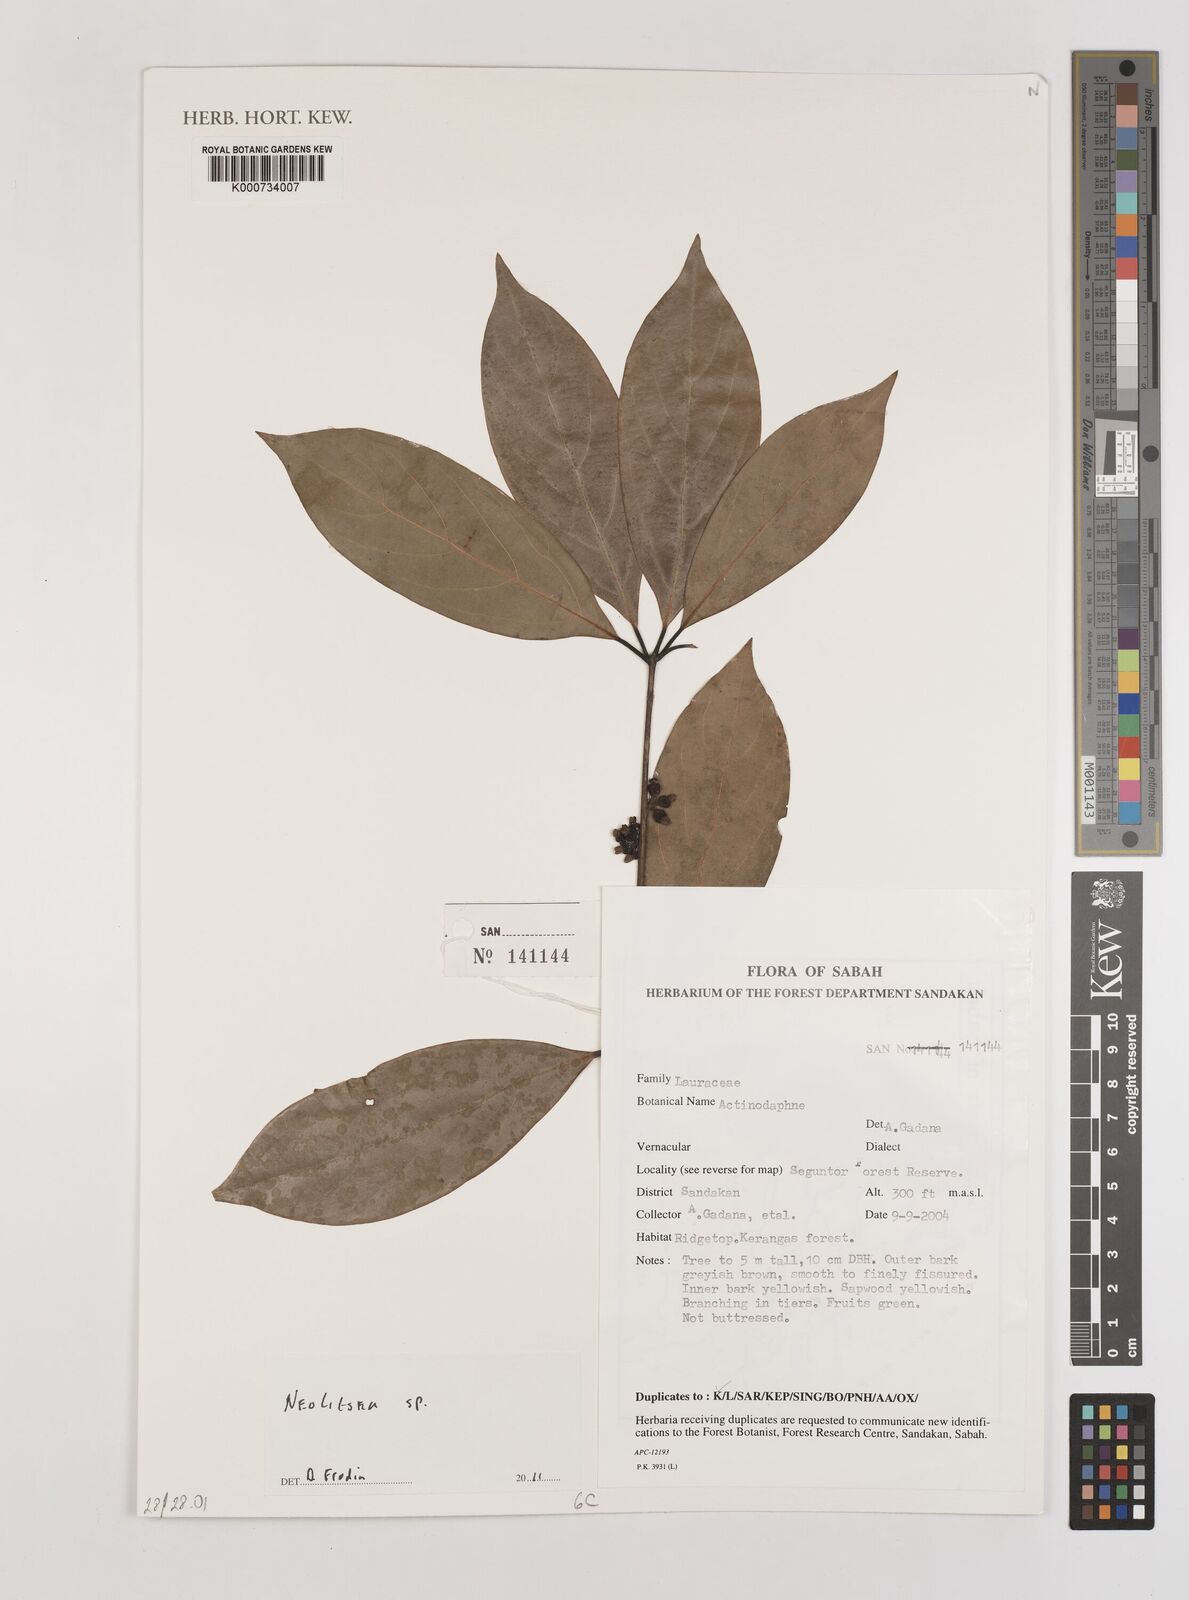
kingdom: Plantae
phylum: Tracheophyta
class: Magnoliopsida
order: Laurales
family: Lauraceae
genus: Neolitsea
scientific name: Neolitsea
